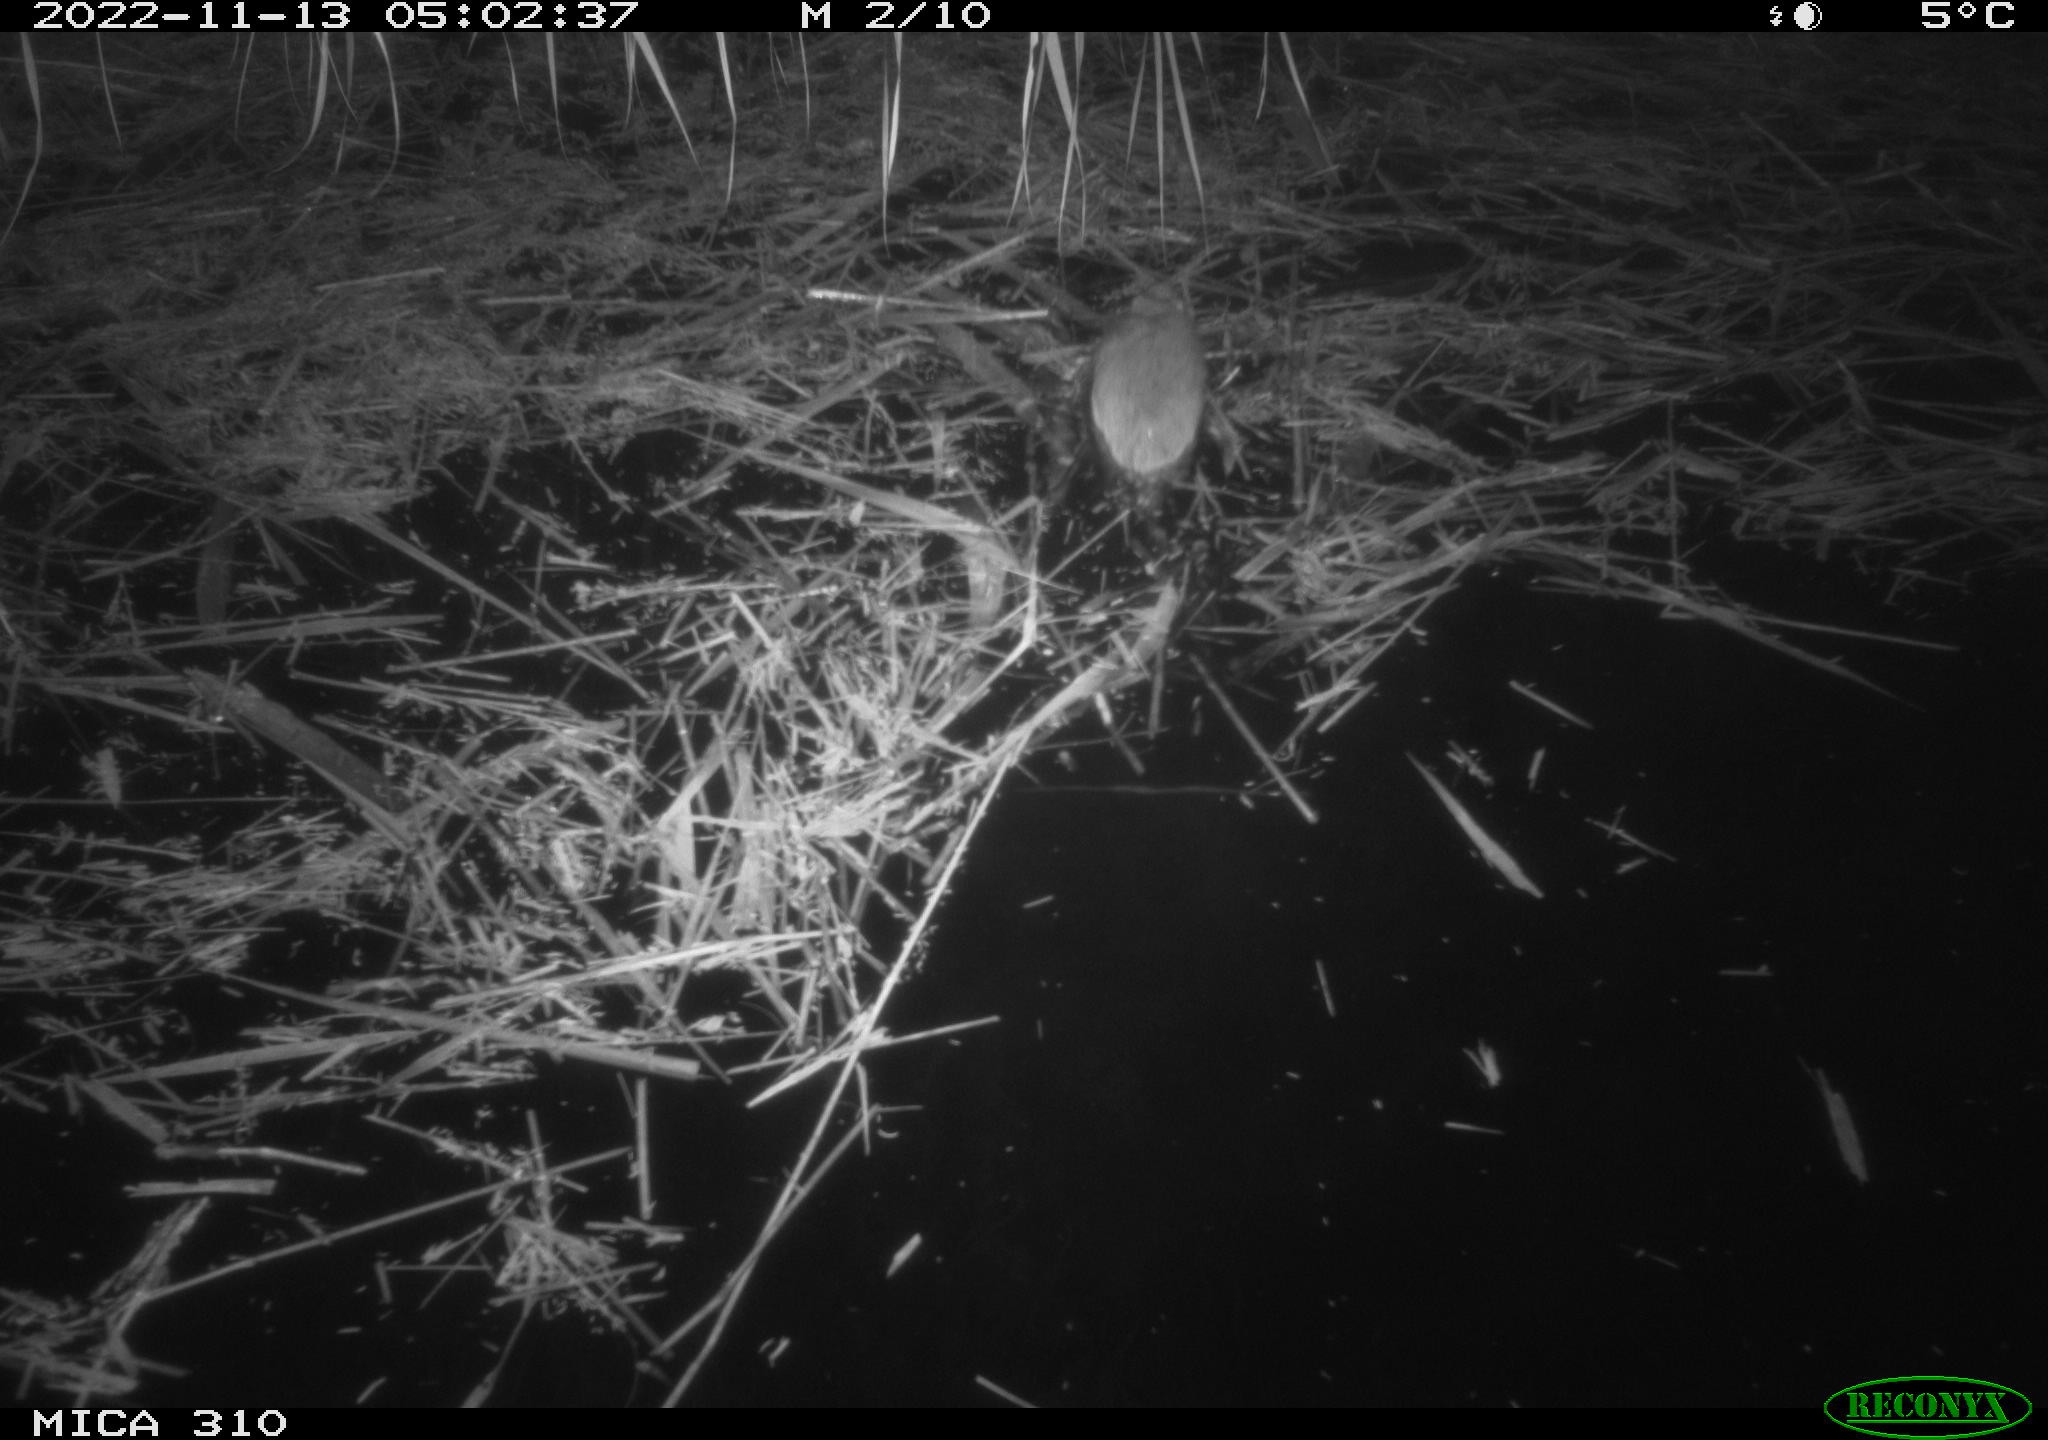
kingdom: Animalia
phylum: Chordata
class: Mammalia
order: Rodentia
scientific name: Rodentia
